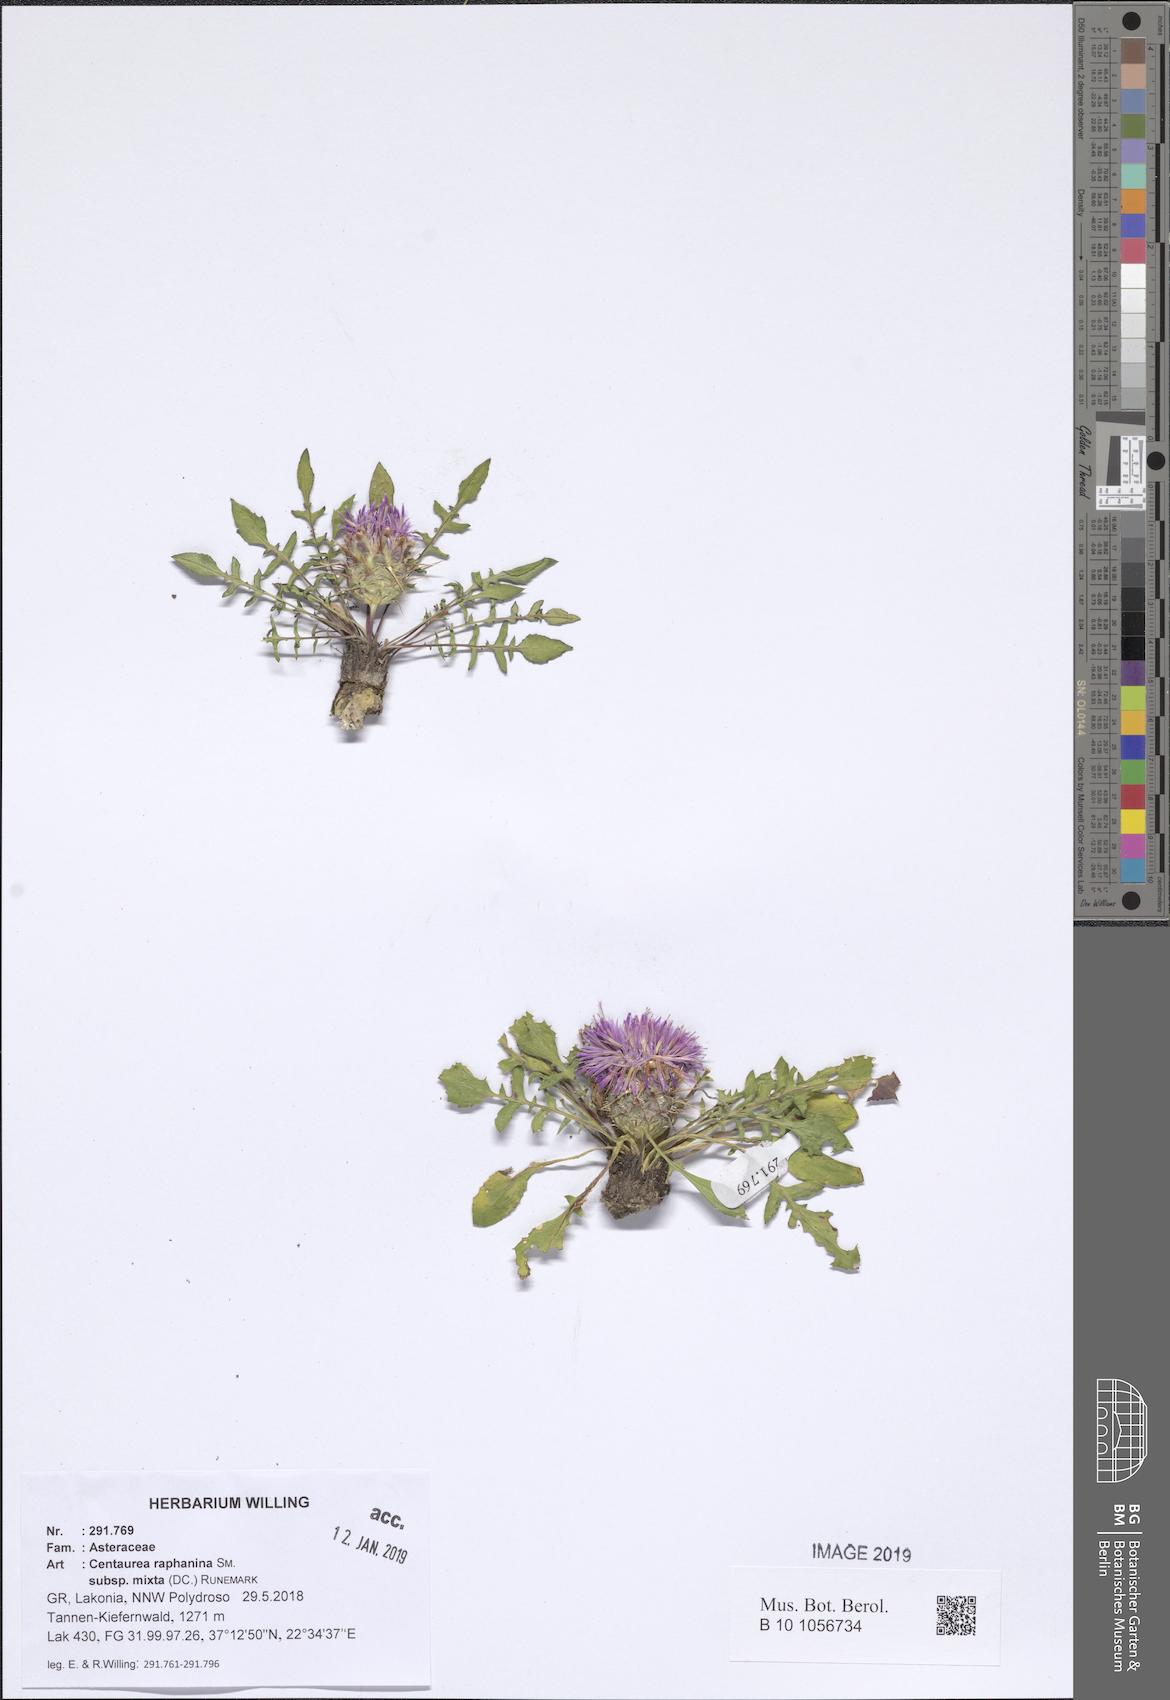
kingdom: Plantae
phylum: Tracheophyta
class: Magnoliopsida
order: Asterales
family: Asteraceae
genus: Centaurea
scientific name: Centaurea raphanina
